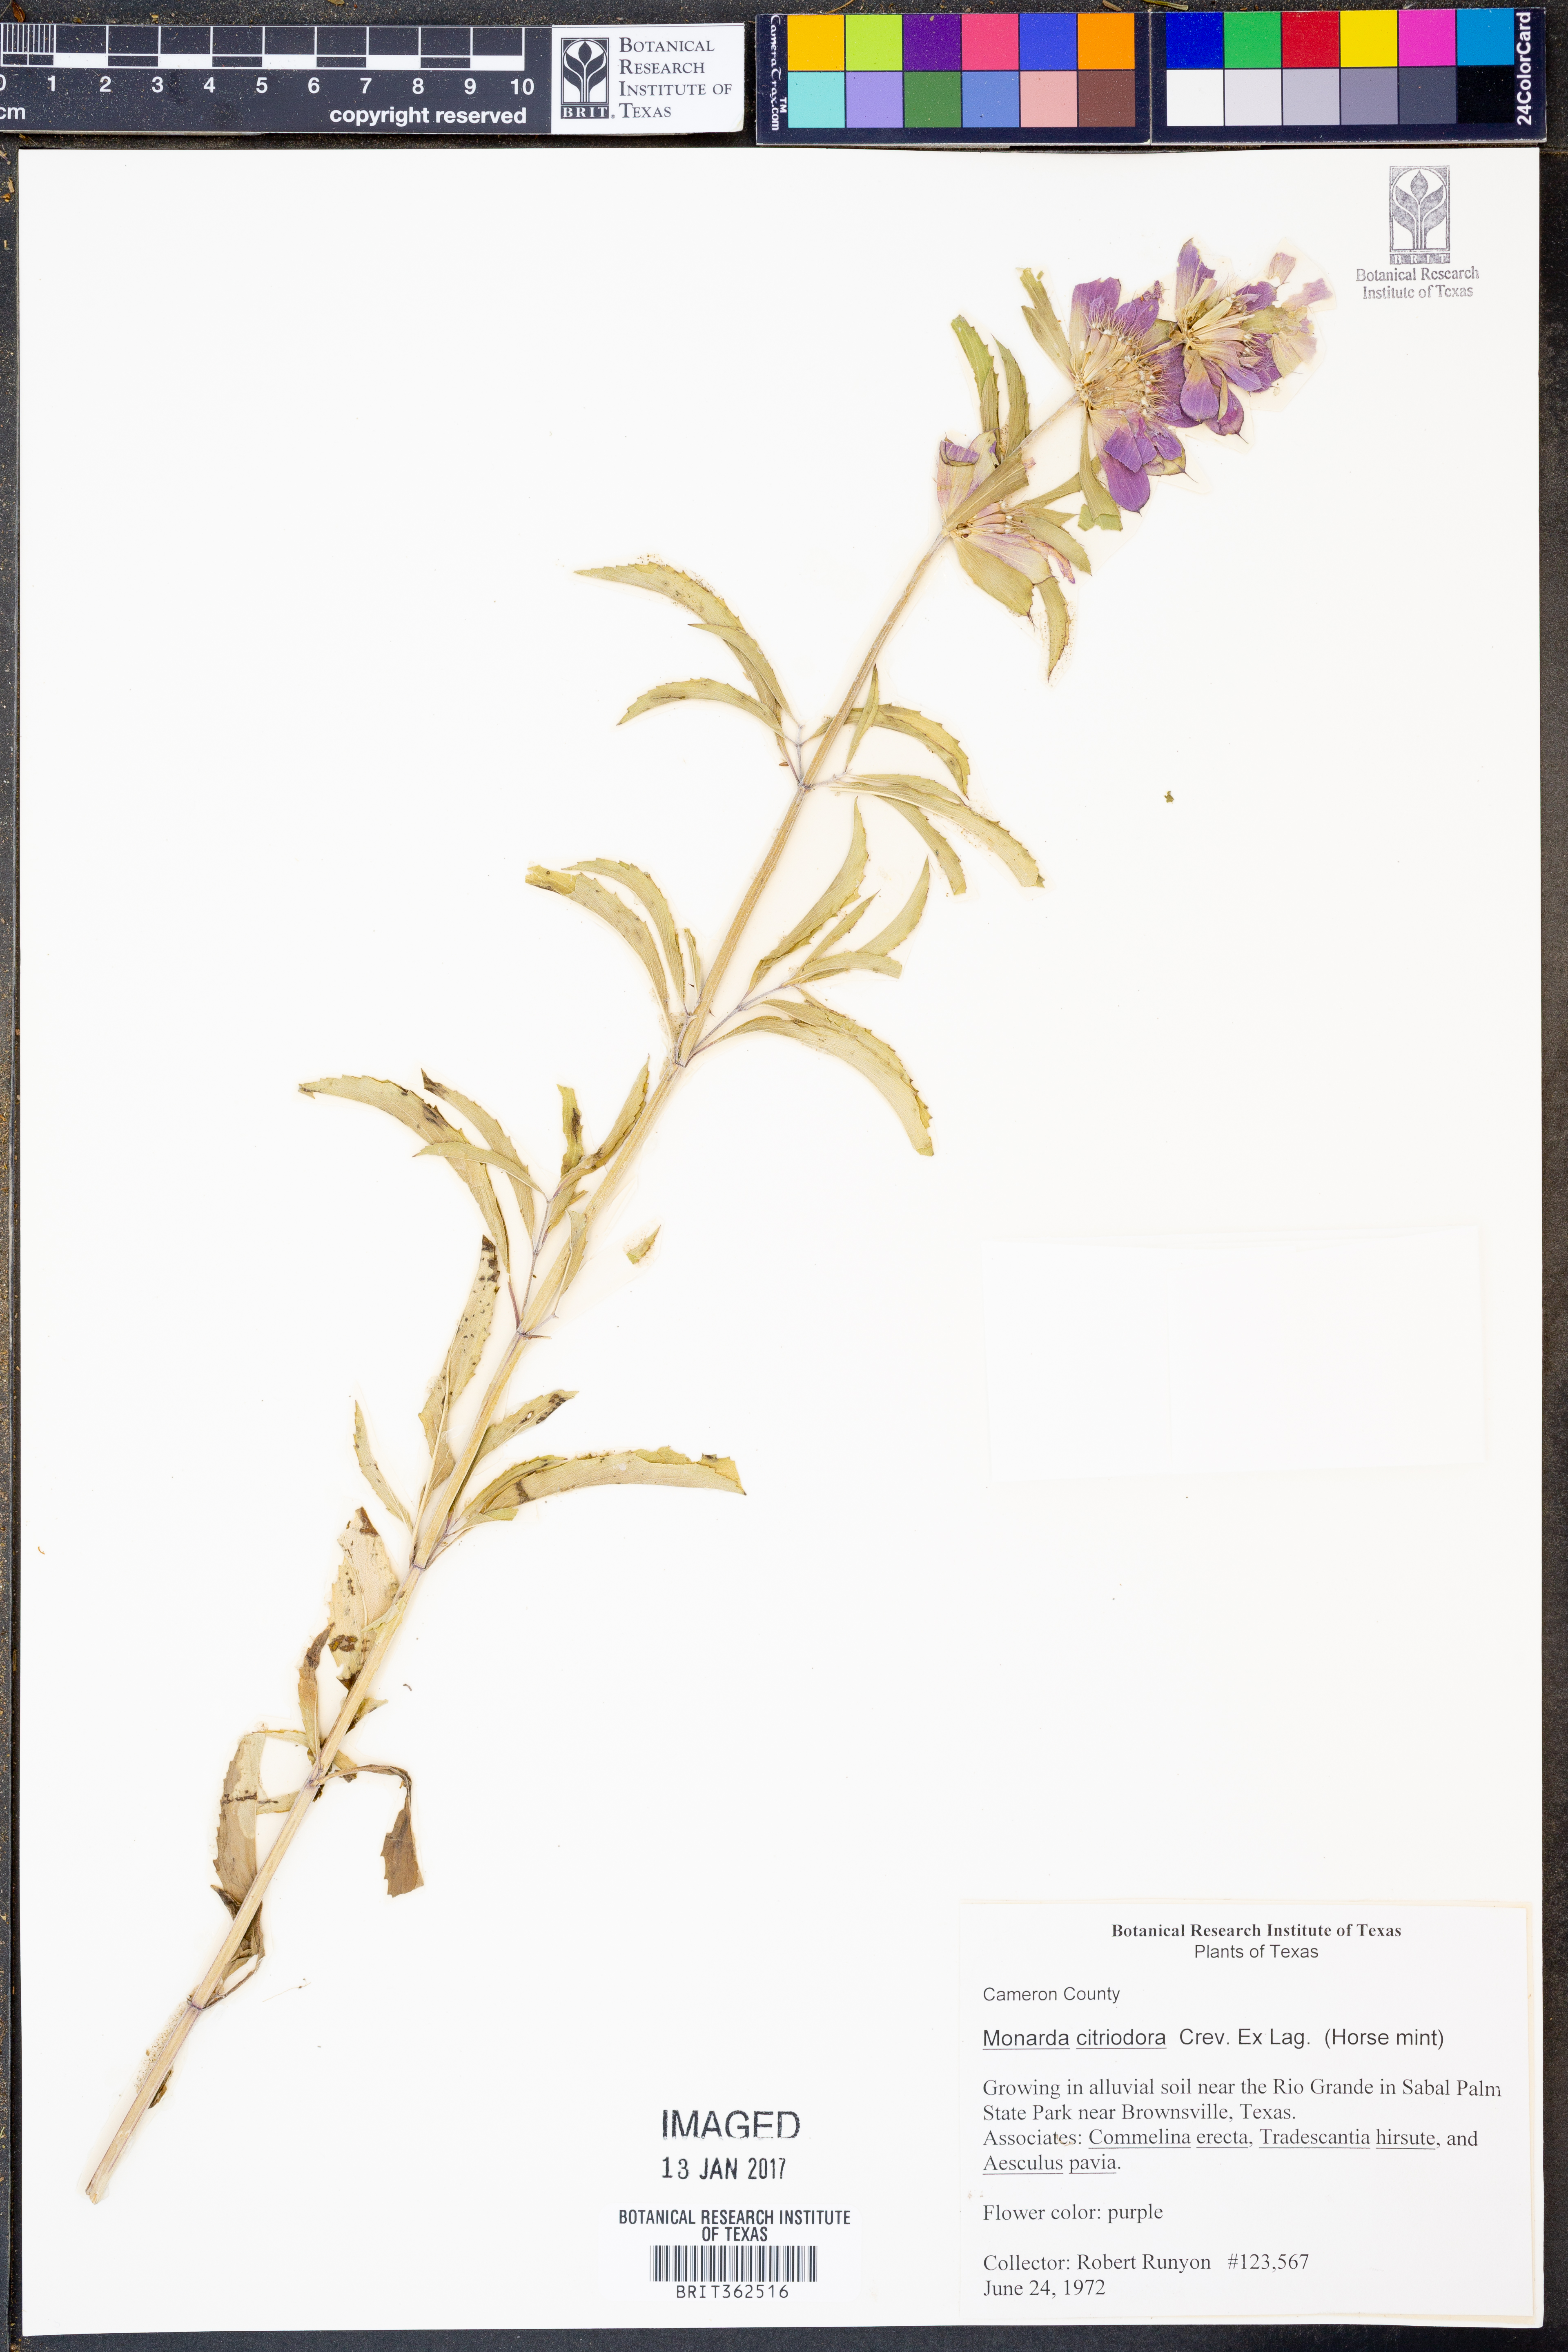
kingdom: Plantae
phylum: Tracheophyta
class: Magnoliopsida
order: Lamiales
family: Lamiaceae
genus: Monarda
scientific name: Monarda citriodora
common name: Lemon beebalm
